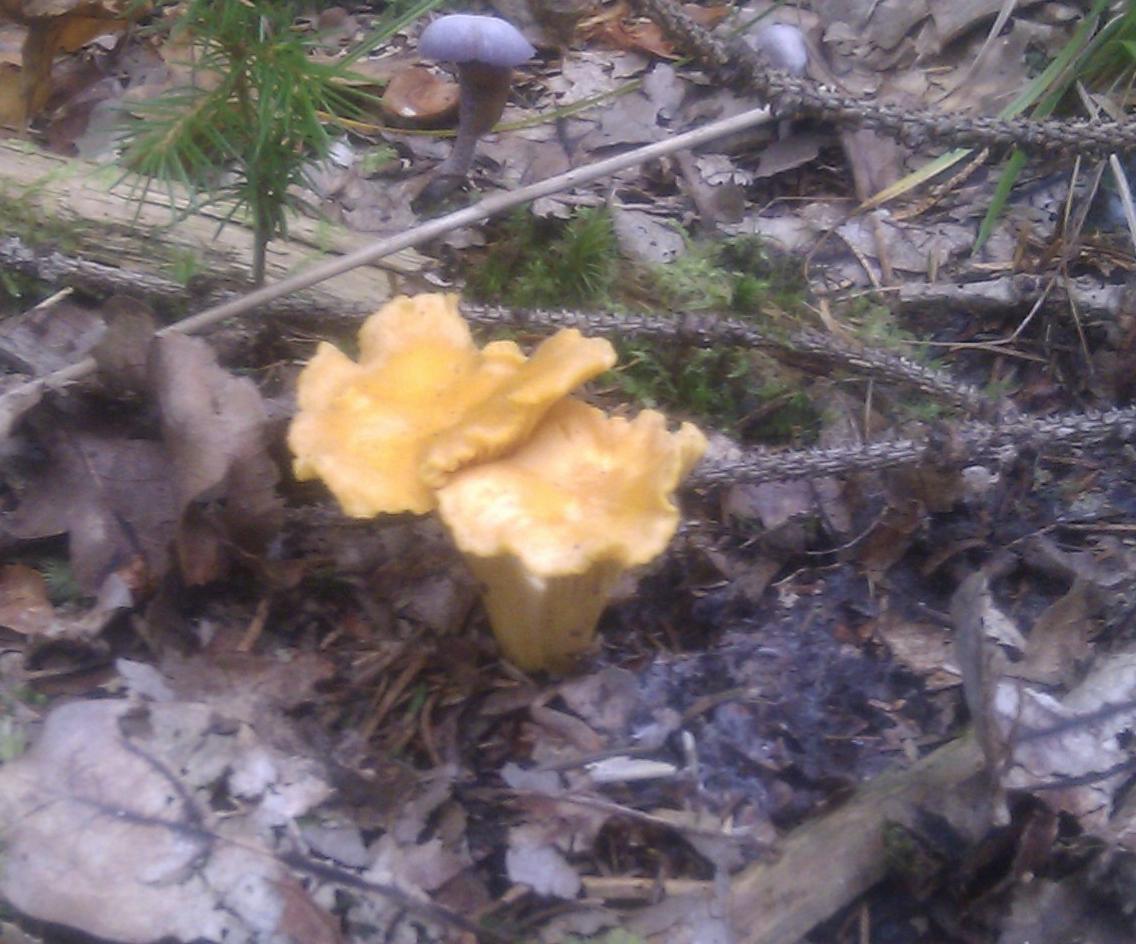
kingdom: Fungi
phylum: Basidiomycota
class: Agaricomycetes
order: Cantharellales
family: Hydnaceae
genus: Cantharellus
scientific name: Cantharellus cibarius
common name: almindelig kantarel
